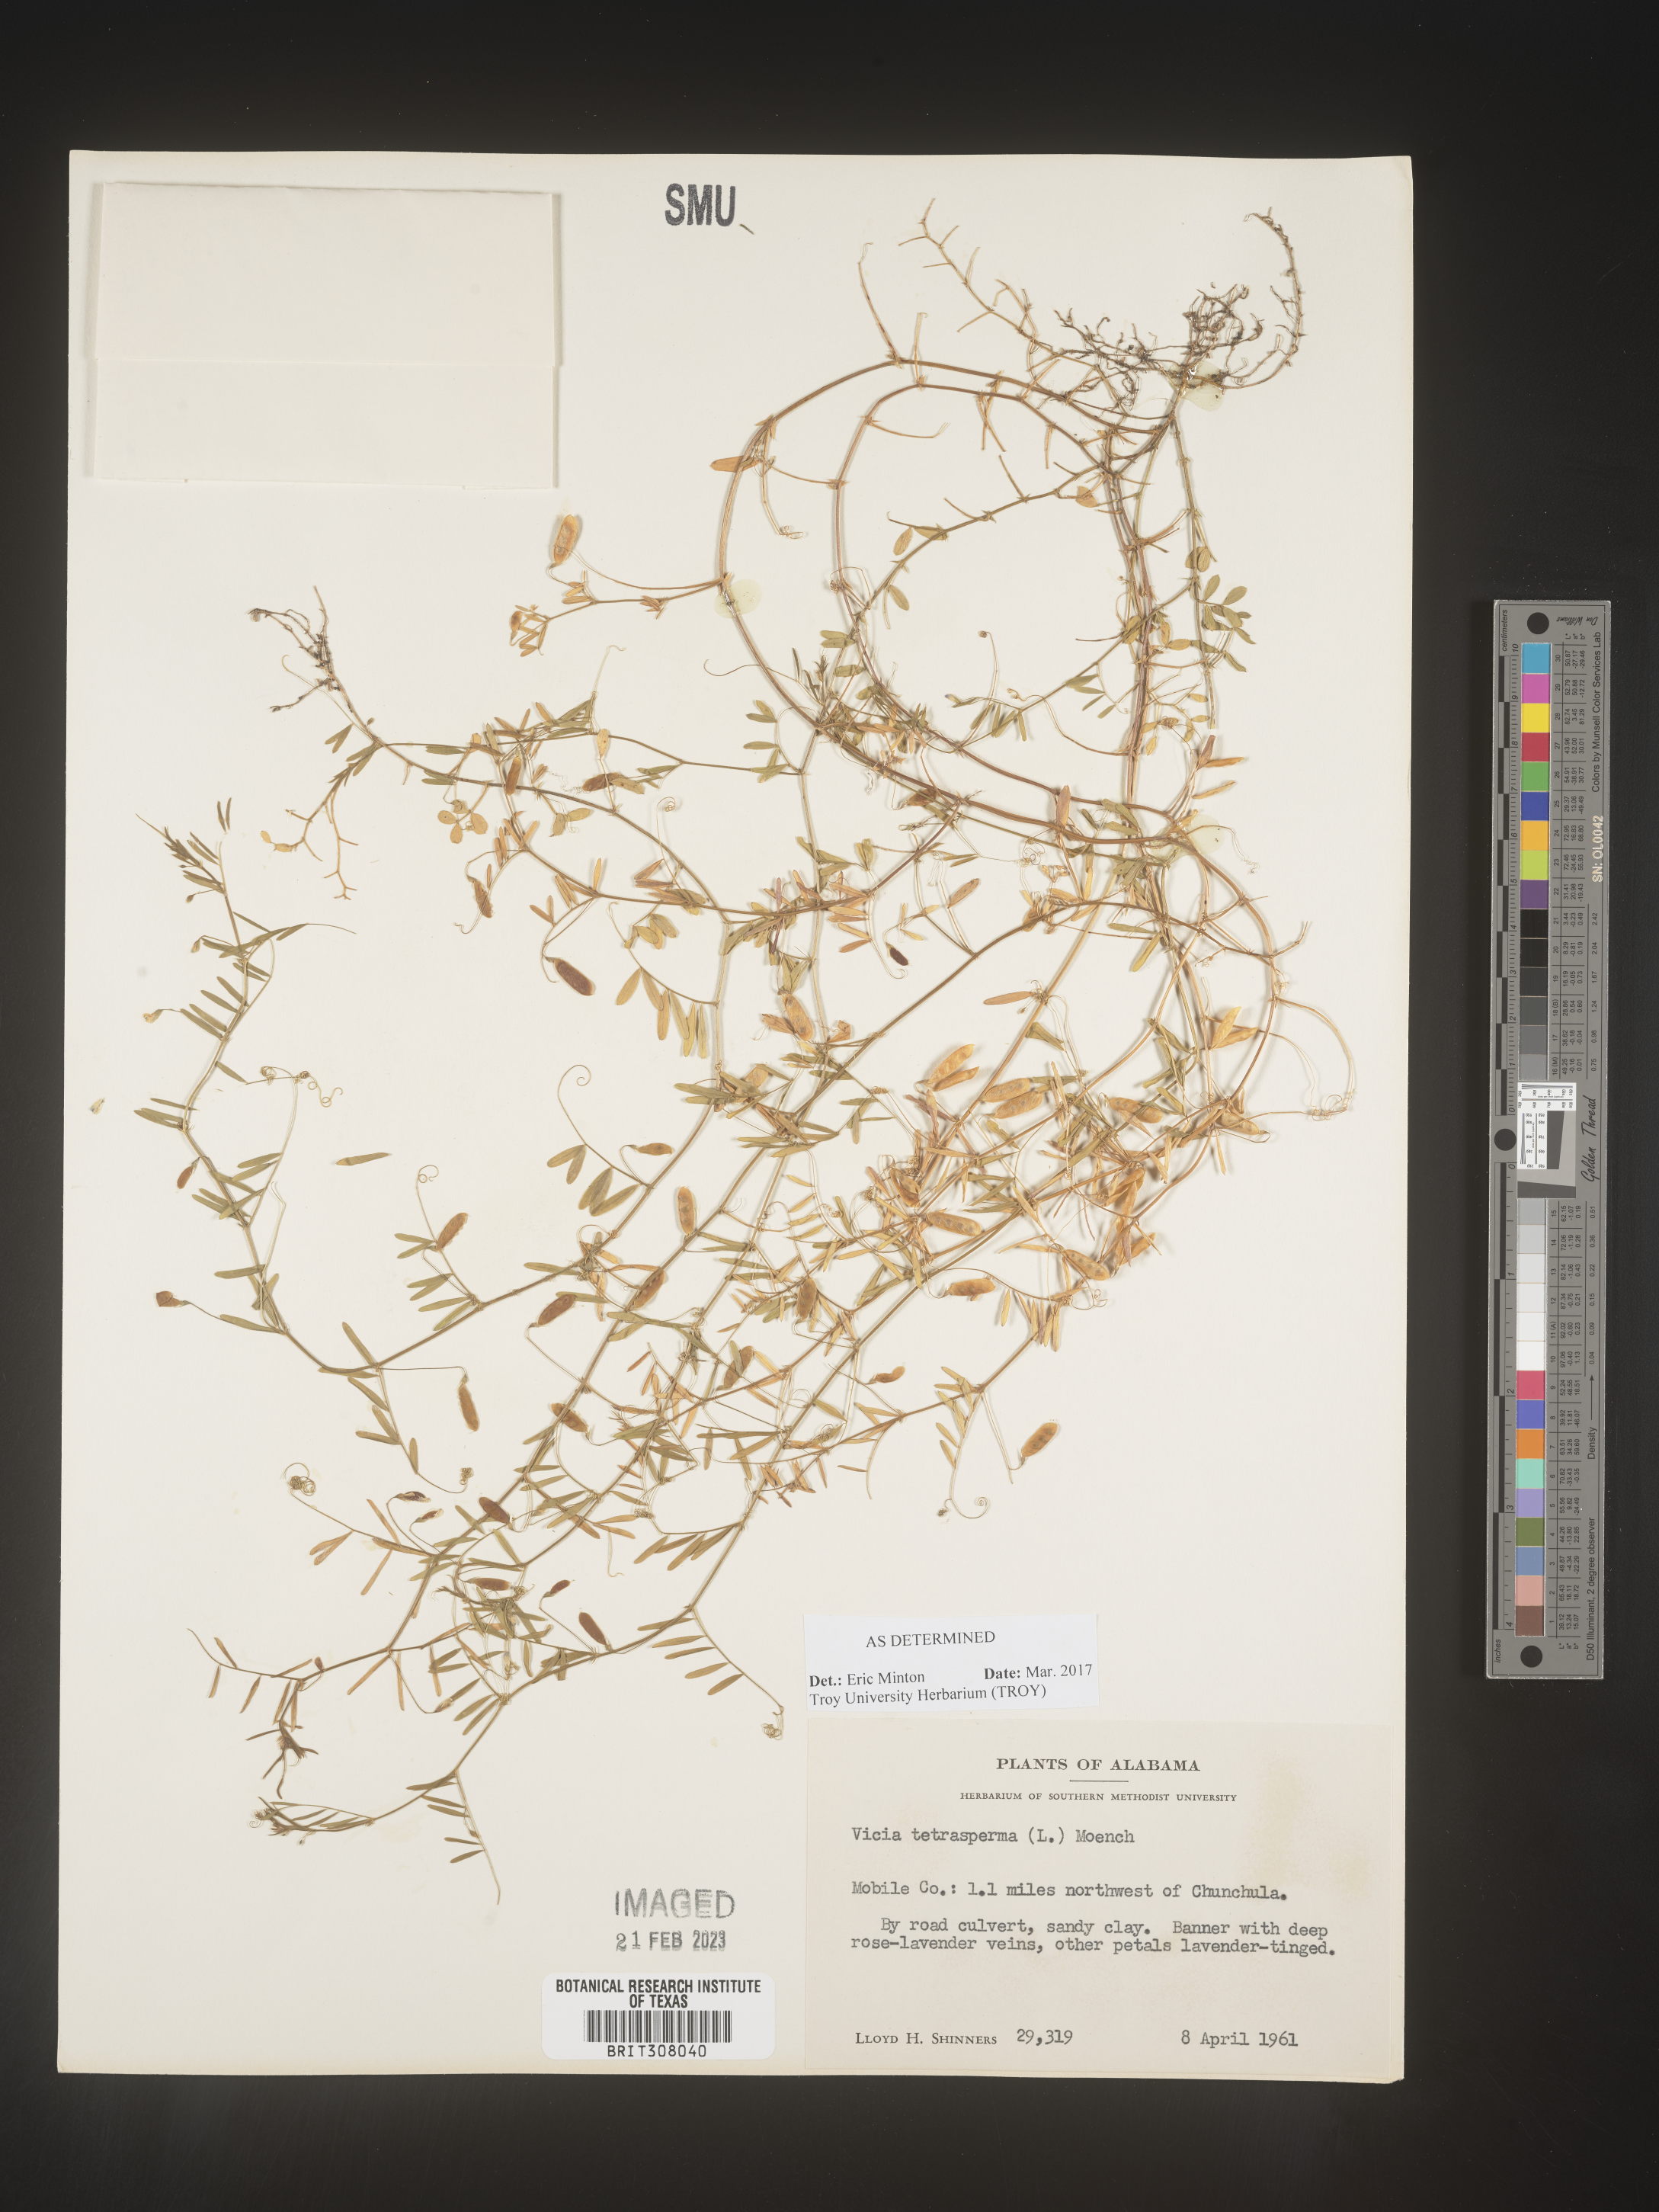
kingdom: Plantae
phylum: Tracheophyta
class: Magnoliopsida
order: Fabales
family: Fabaceae
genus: Vicia
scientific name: Vicia tetrasperma
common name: Smooth tare
